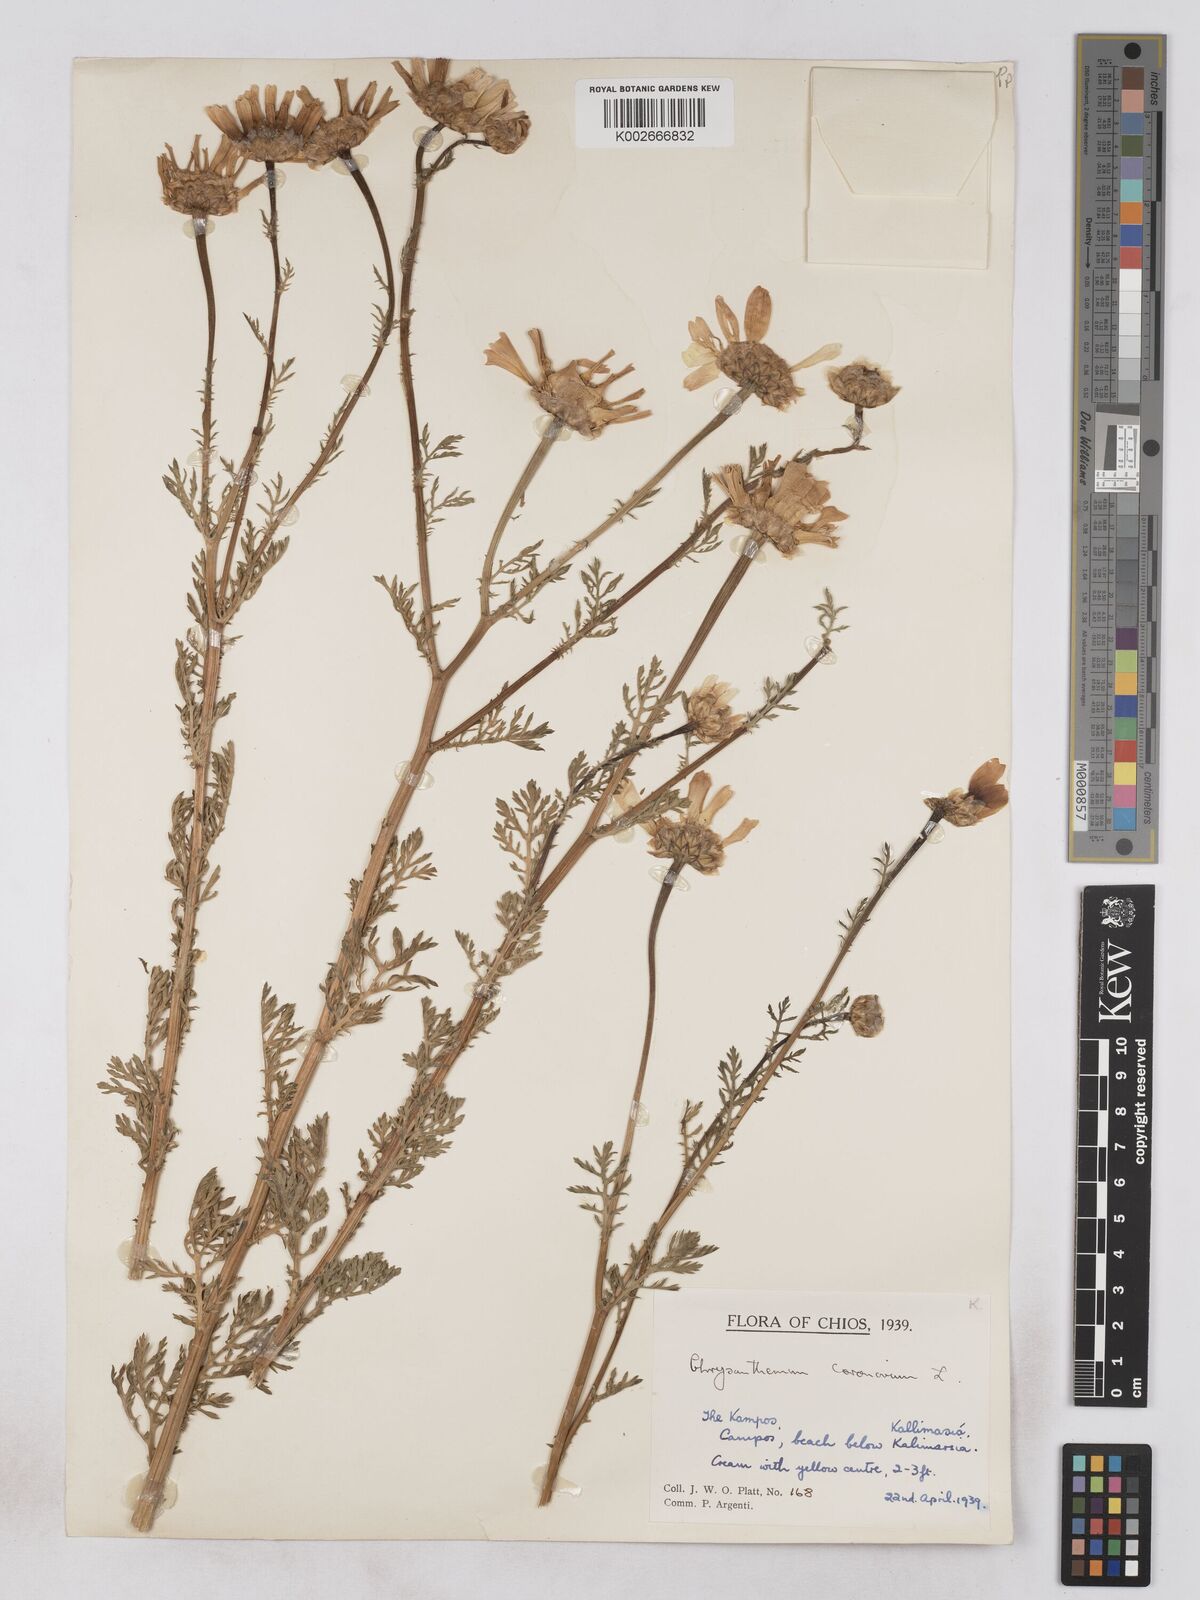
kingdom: Plantae
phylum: Tracheophyta
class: Magnoliopsida
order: Asterales
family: Asteraceae
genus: Glebionis
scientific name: Glebionis coronaria
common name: Crowndaisy
